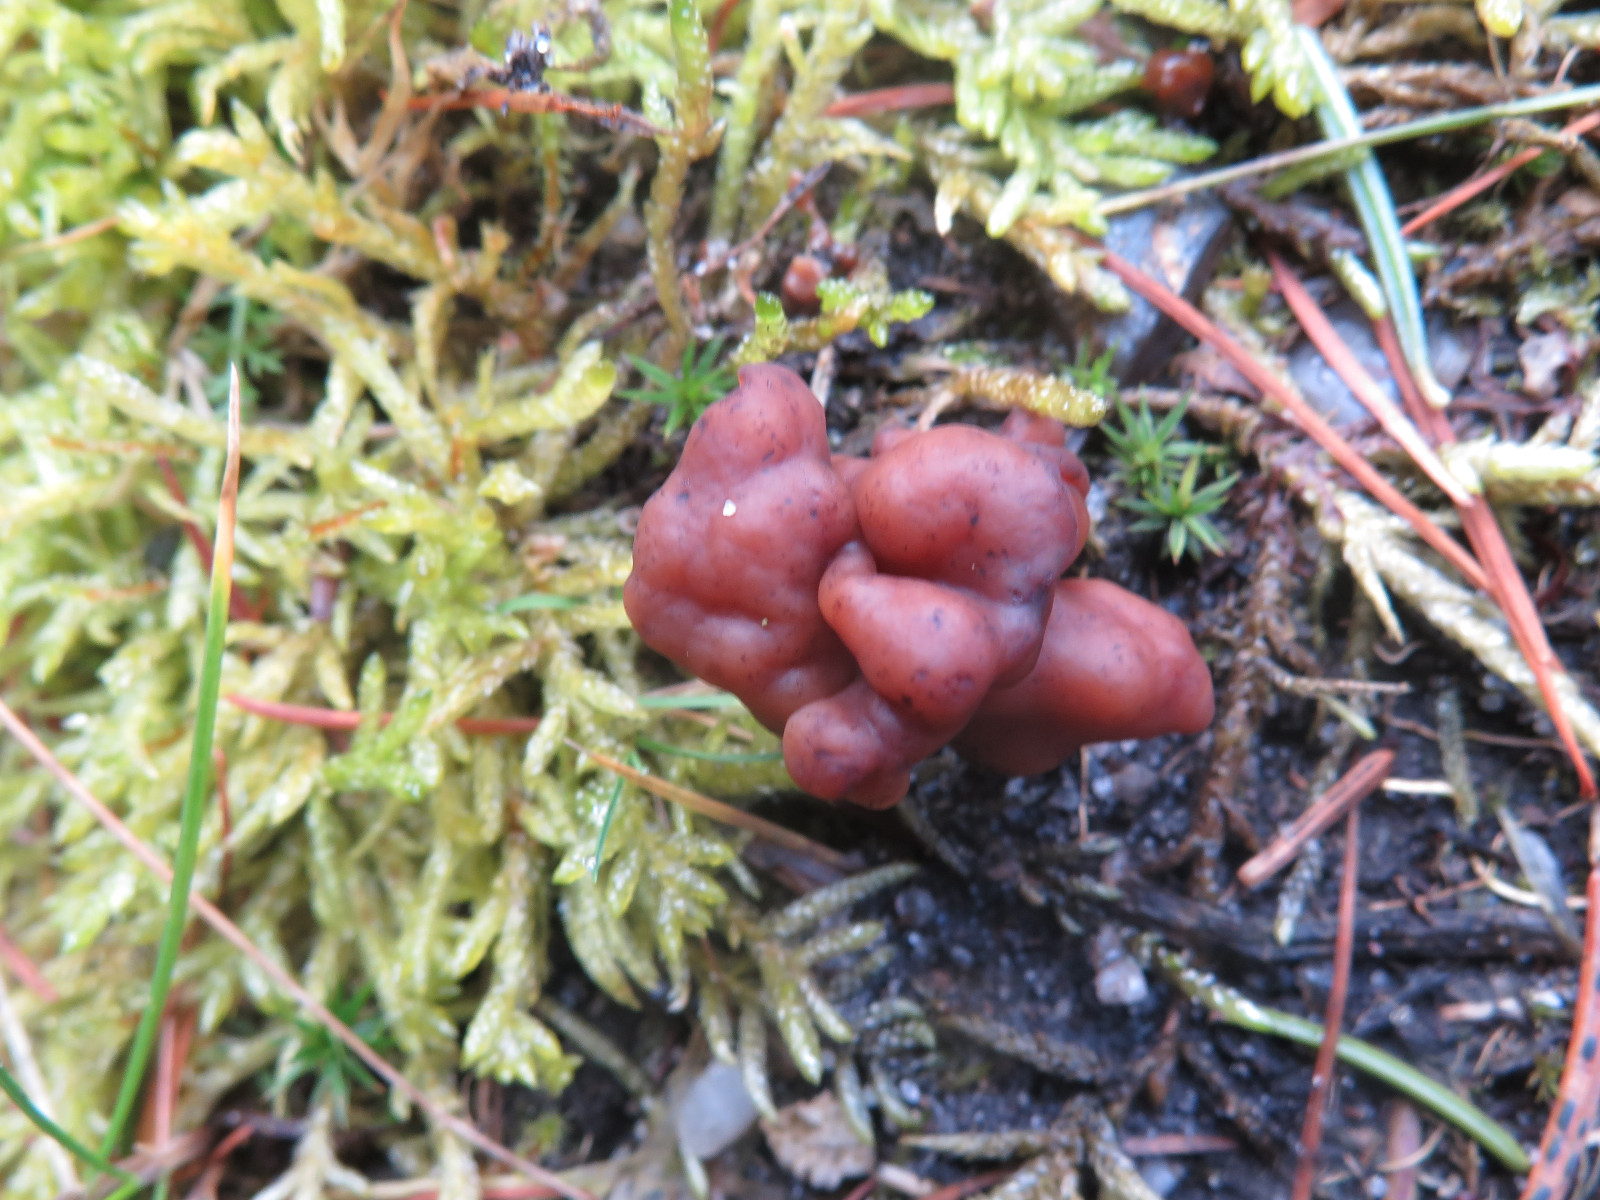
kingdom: Fungi
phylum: Ascomycota
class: Pezizomycetes
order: Pezizales
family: Discinaceae
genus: Gyromitra
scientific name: Gyromitra esculenta
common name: ægte stenmorkel
